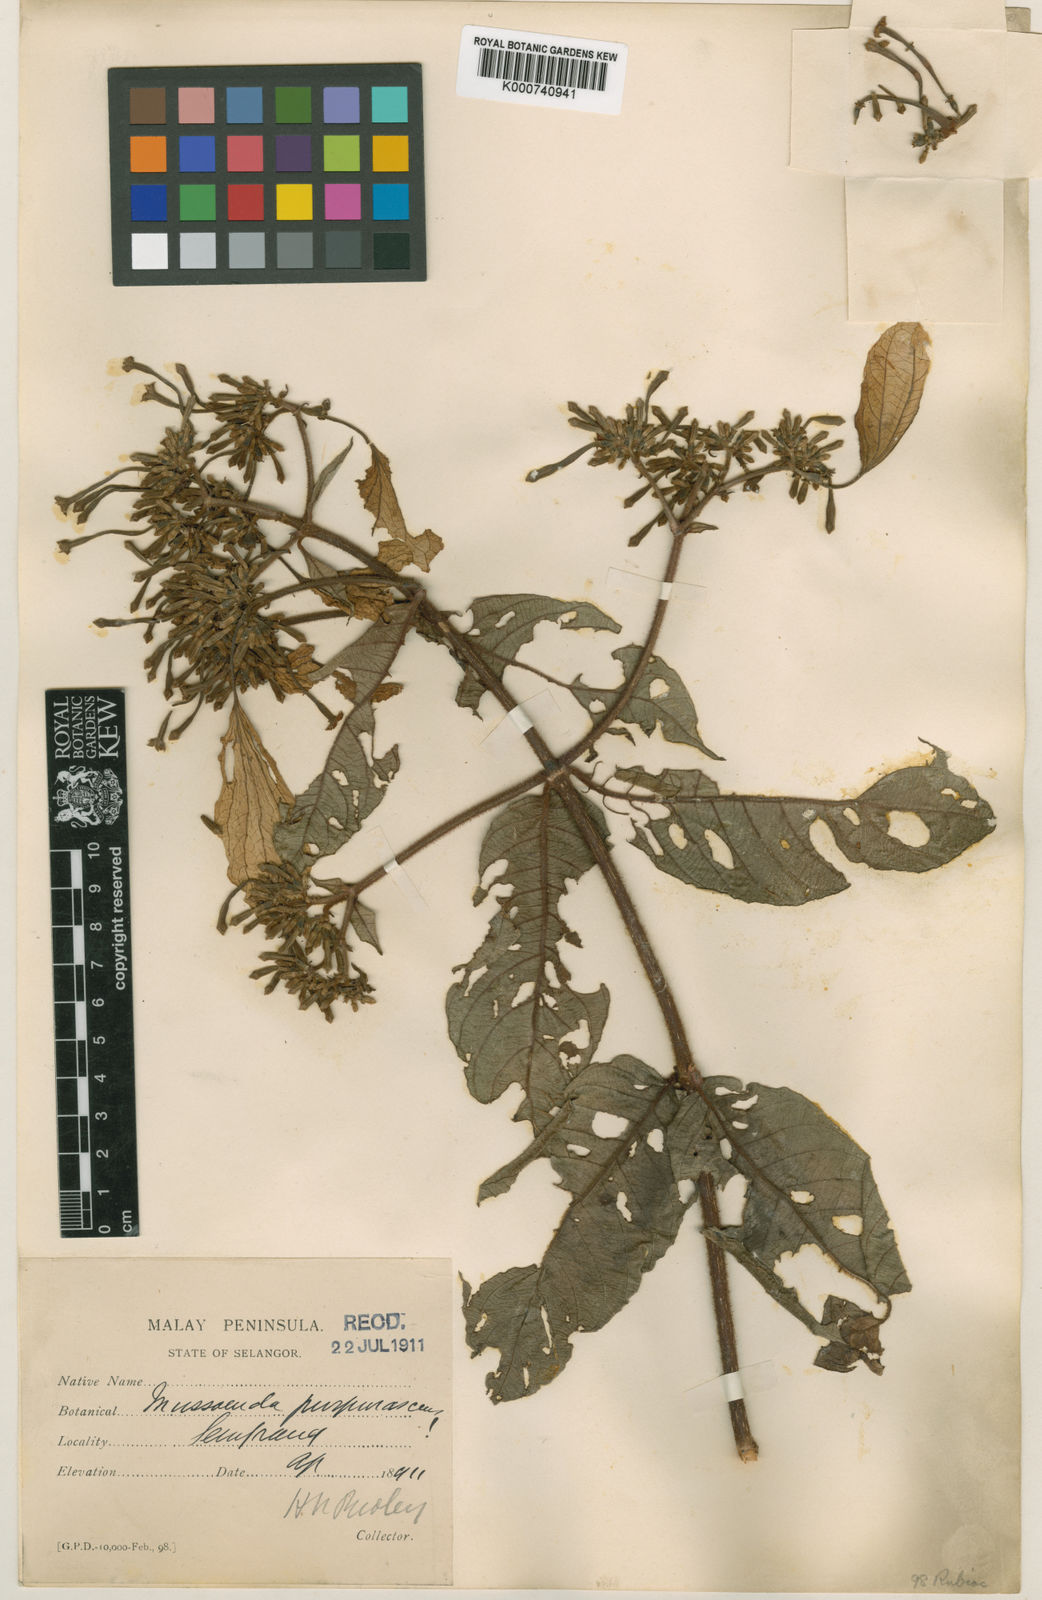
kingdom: Plantae
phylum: Tracheophyta
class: Magnoliopsida
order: Gentianales
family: Rubiaceae
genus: Mussaenda
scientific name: Mussaenda purpurascens
